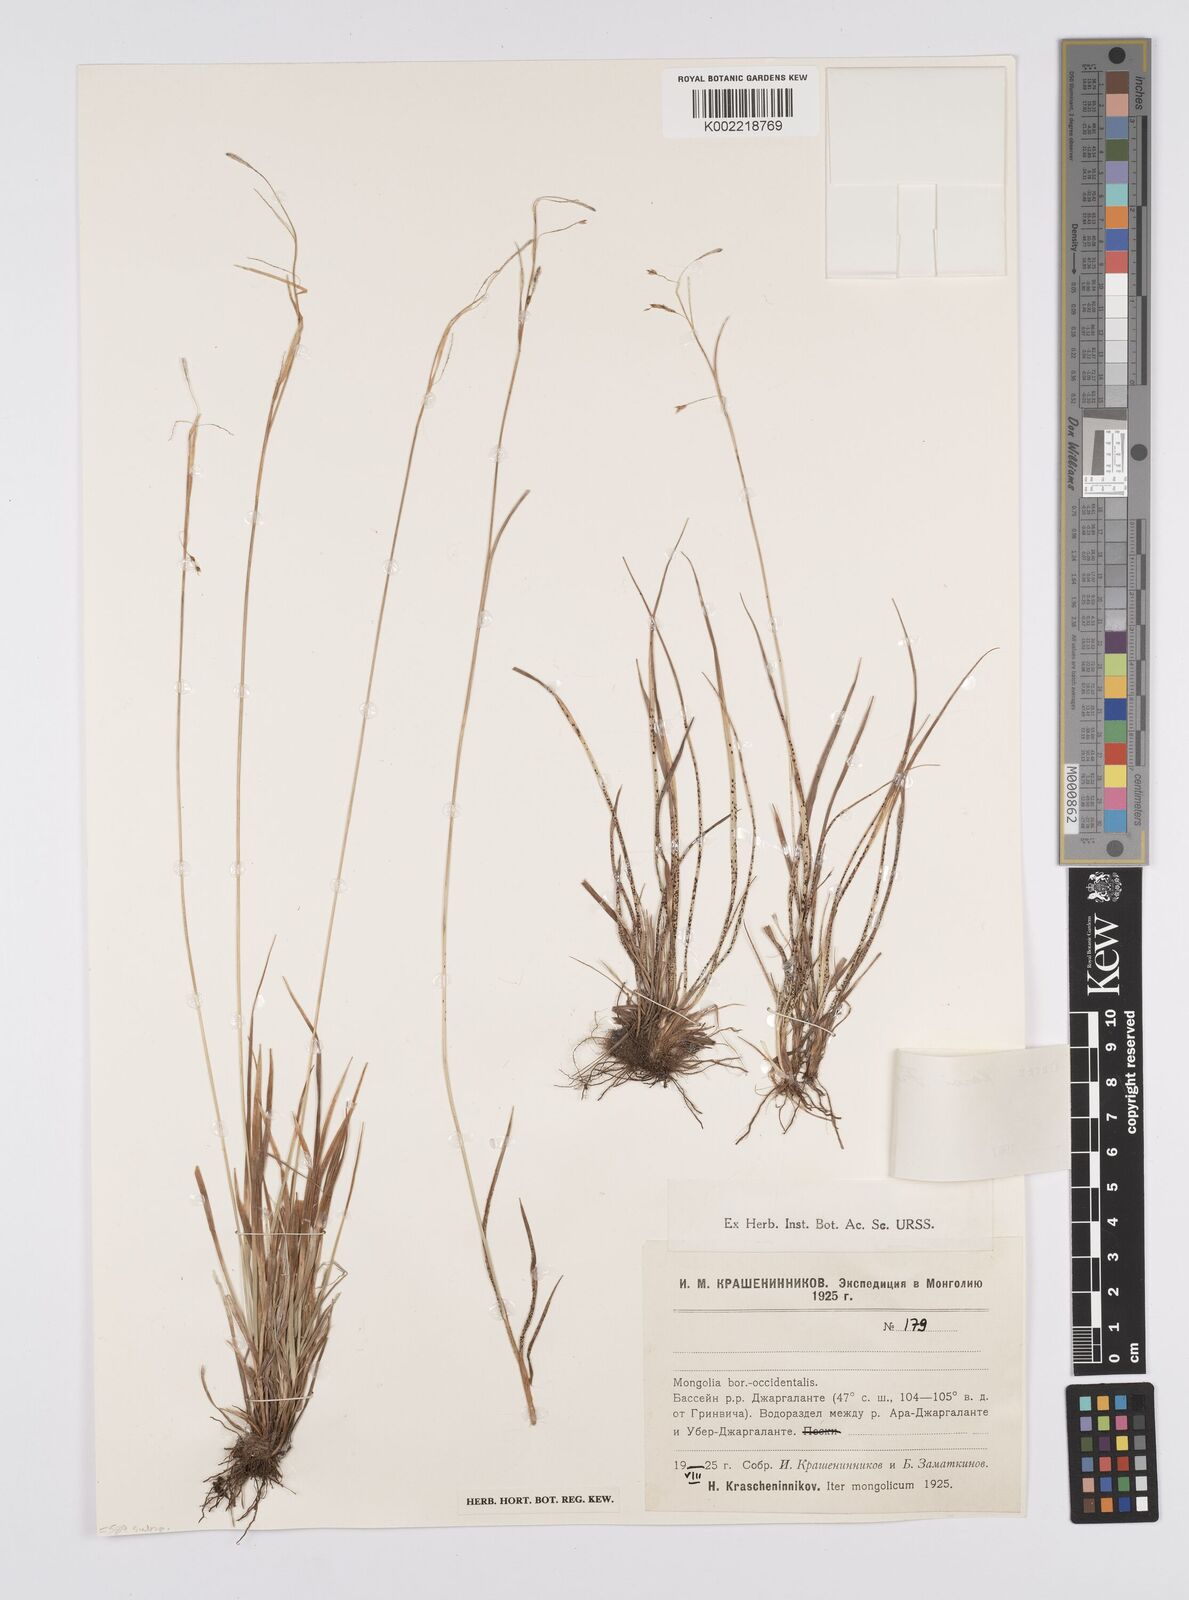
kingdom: Plantae
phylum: Tracheophyta
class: Liliopsida
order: Poales
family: Cyperaceae
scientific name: Cyperaceae
